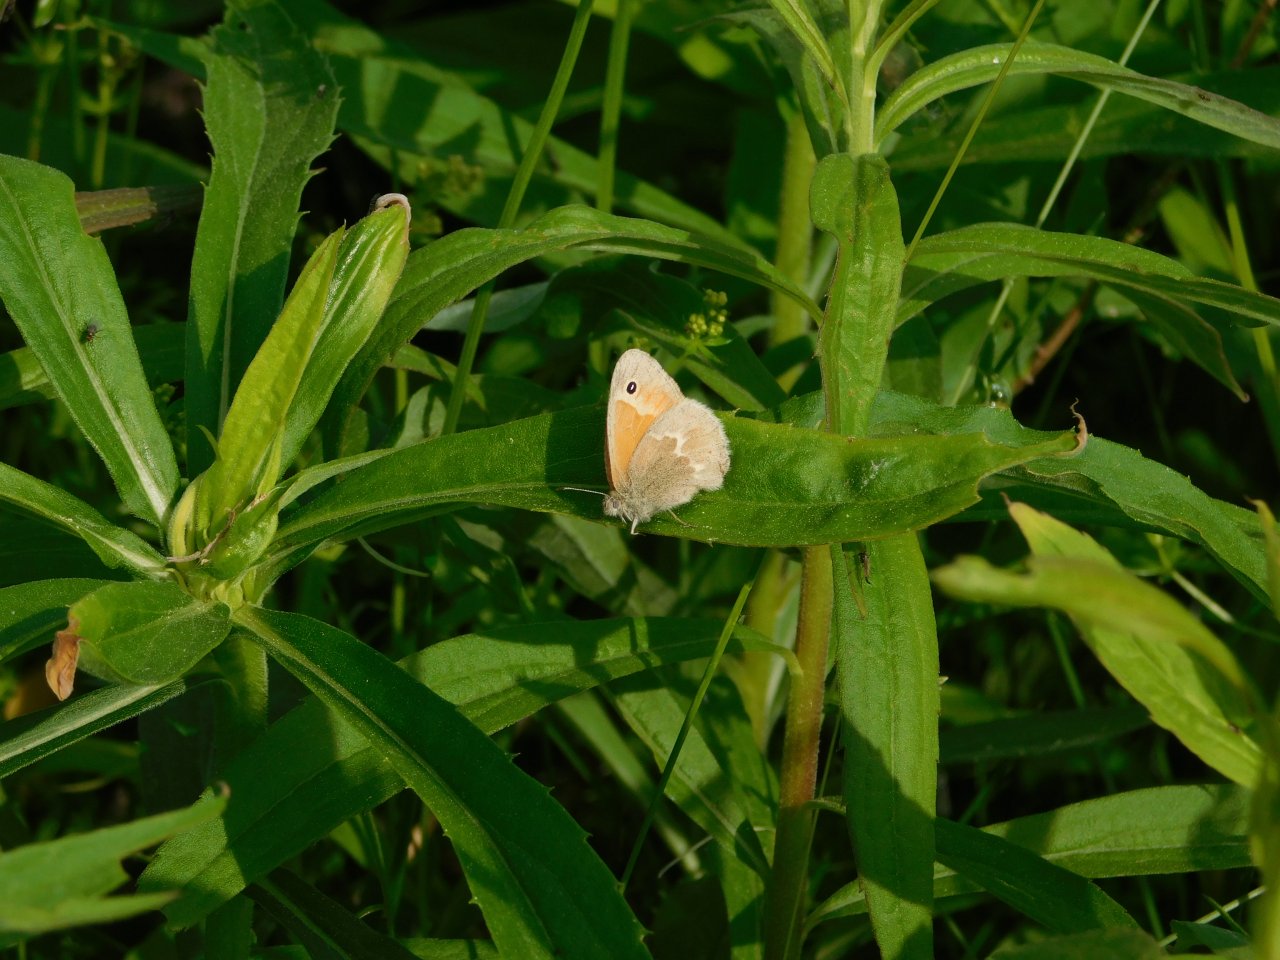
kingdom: Animalia
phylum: Arthropoda
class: Insecta
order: Lepidoptera
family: Nymphalidae
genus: Coenonympha
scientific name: Coenonympha tullia
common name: Large Heath
